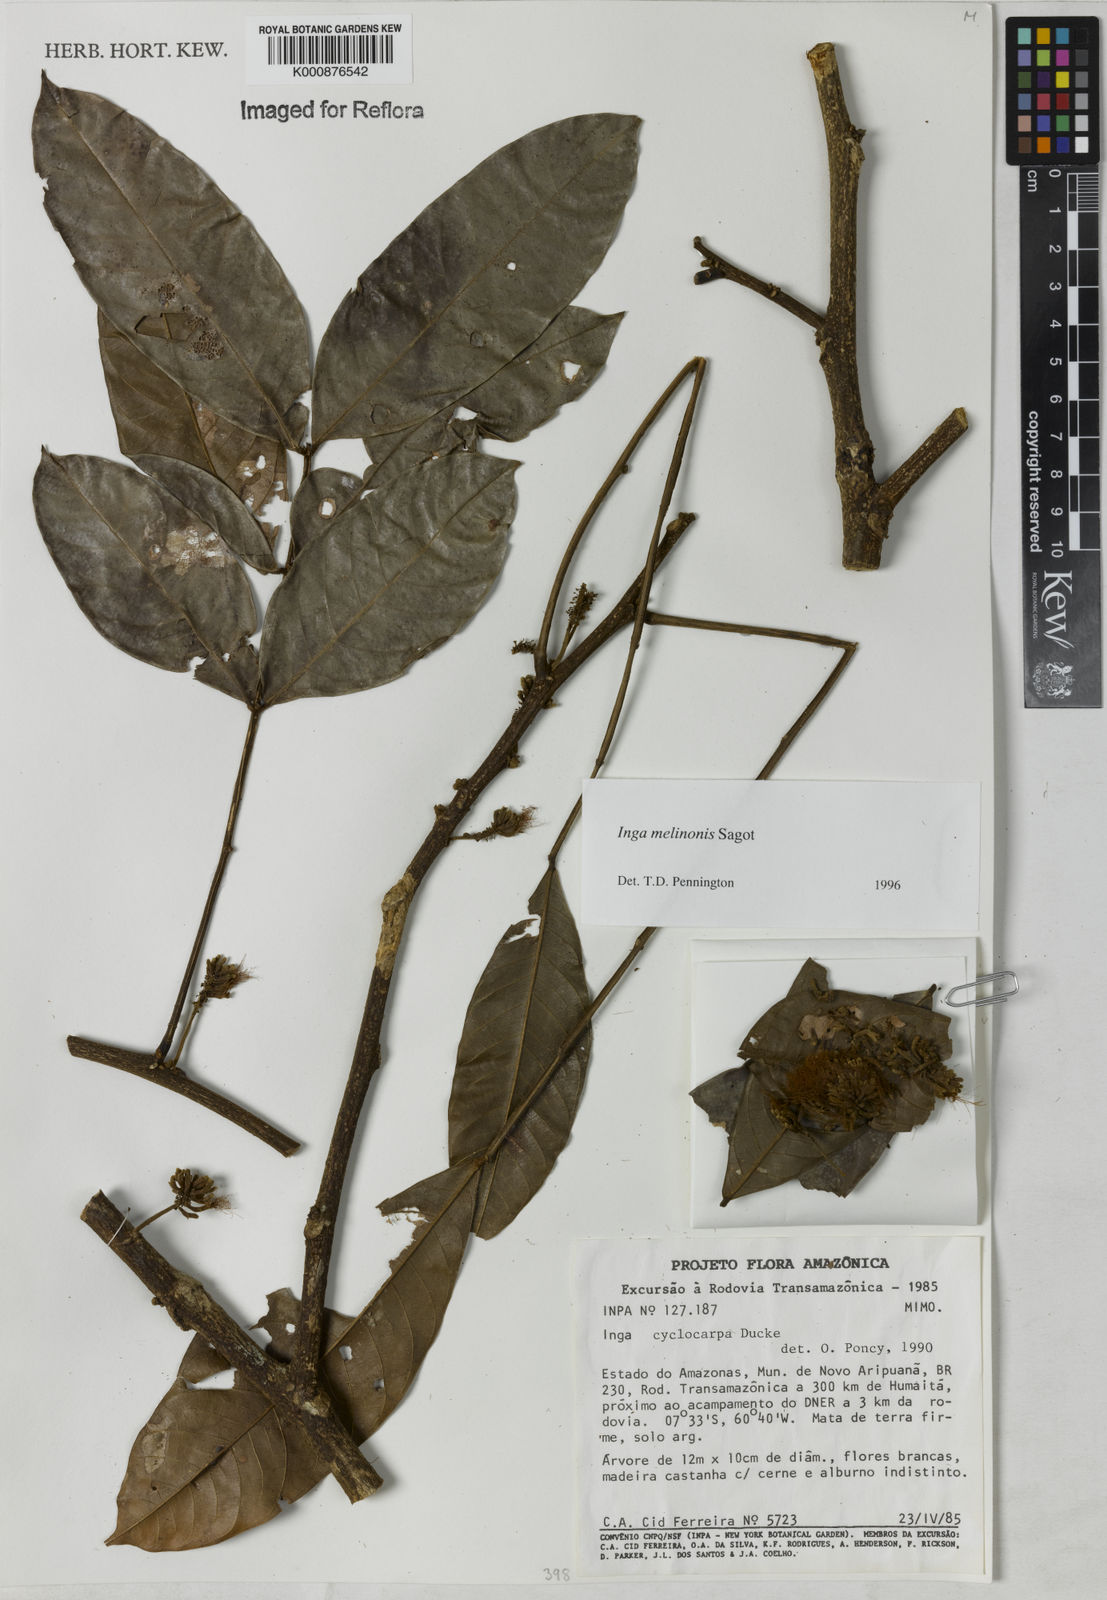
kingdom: Plantae
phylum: Tracheophyta
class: Magnoliopsida
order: Fabales
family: Fabaceae
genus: Inga
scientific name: Inga ruiziana
